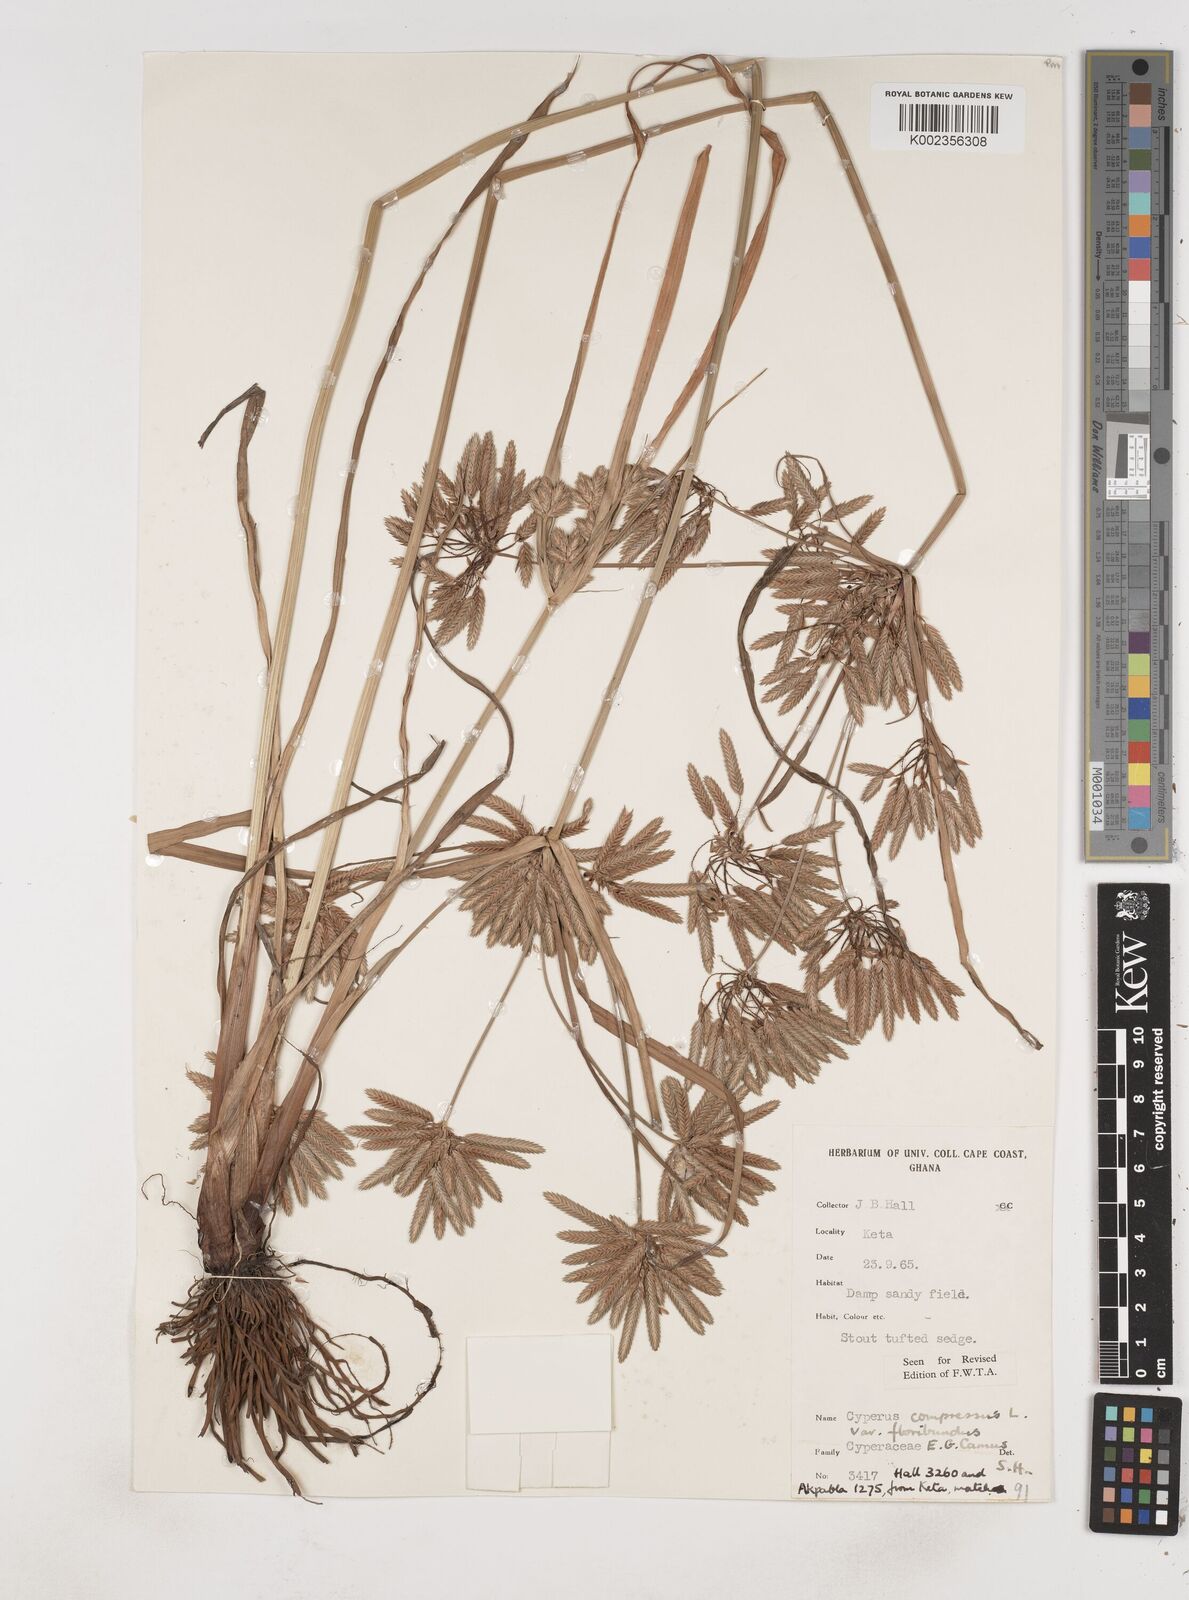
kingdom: Plantae
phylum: Tracheophyta
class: Liliopsida
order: Poales
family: Cyperaceae
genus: Cyperus
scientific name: Cyperus compressus
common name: Poorland flatsedge
